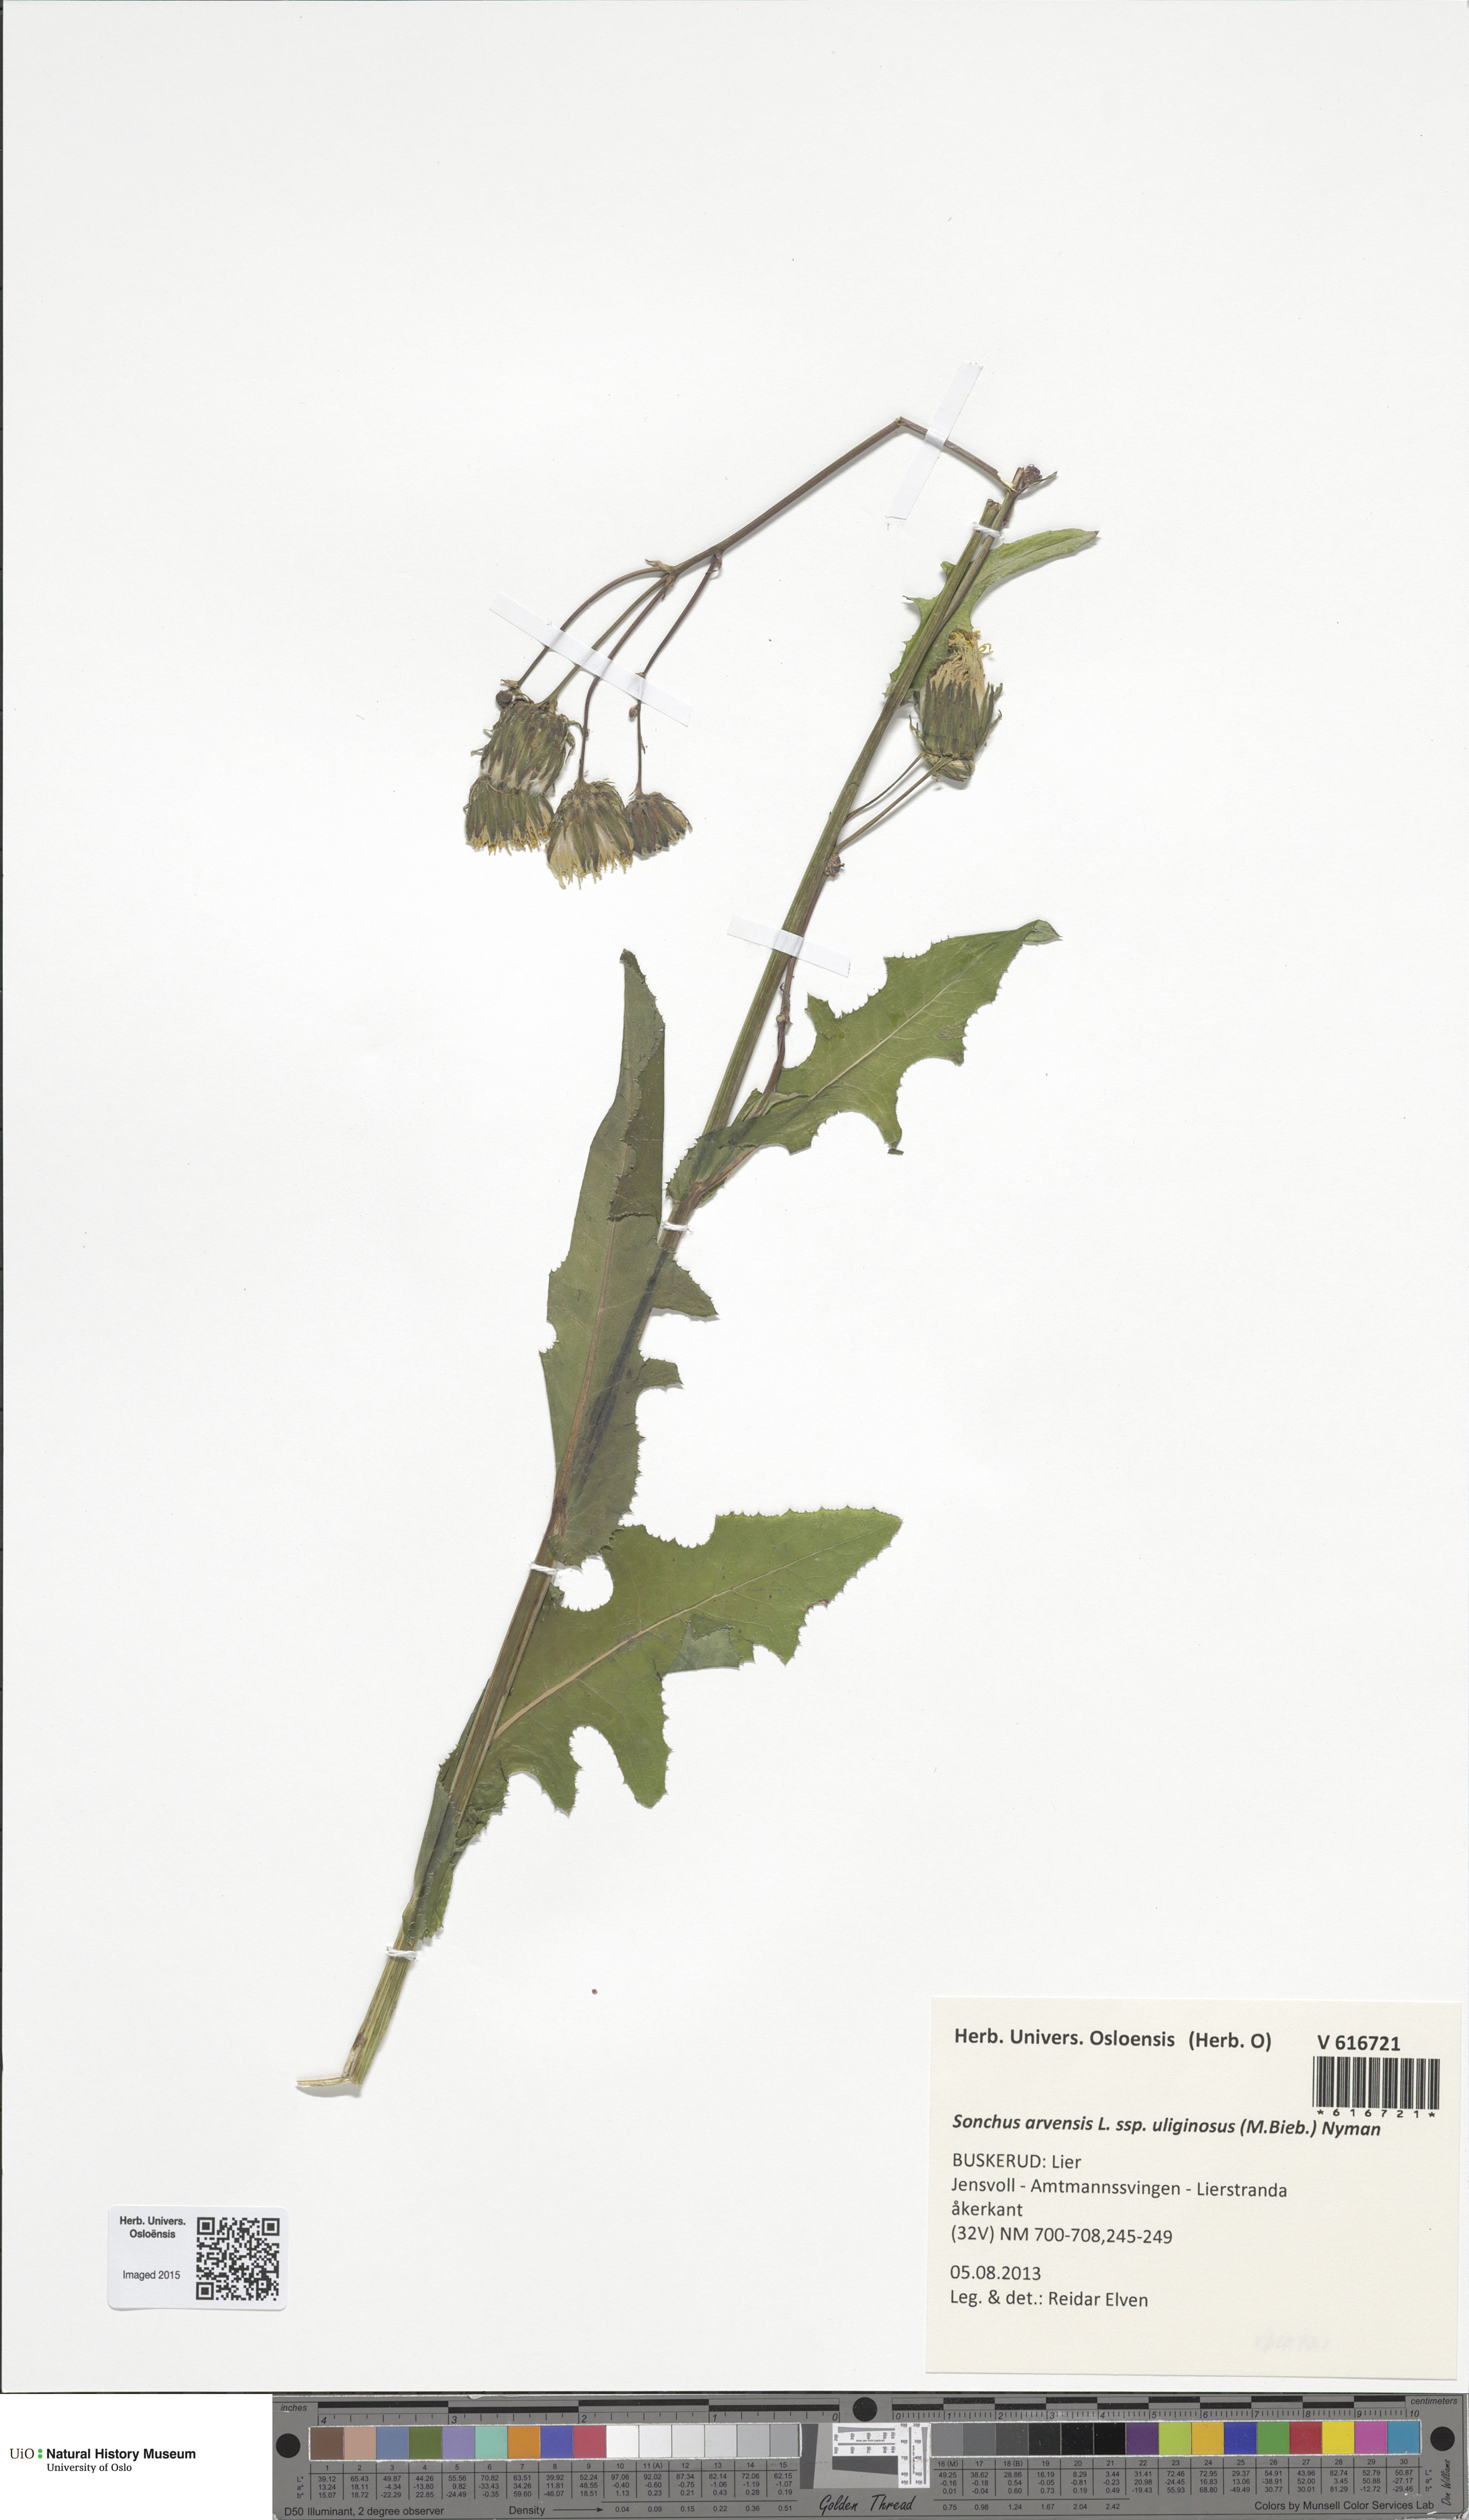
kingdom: Plantae
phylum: Tracheophyta
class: Magnoliopsida
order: Asterales
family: Asteraceae
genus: Sonchus
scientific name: Sonchus arvensis
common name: Perennial sow-thistle
